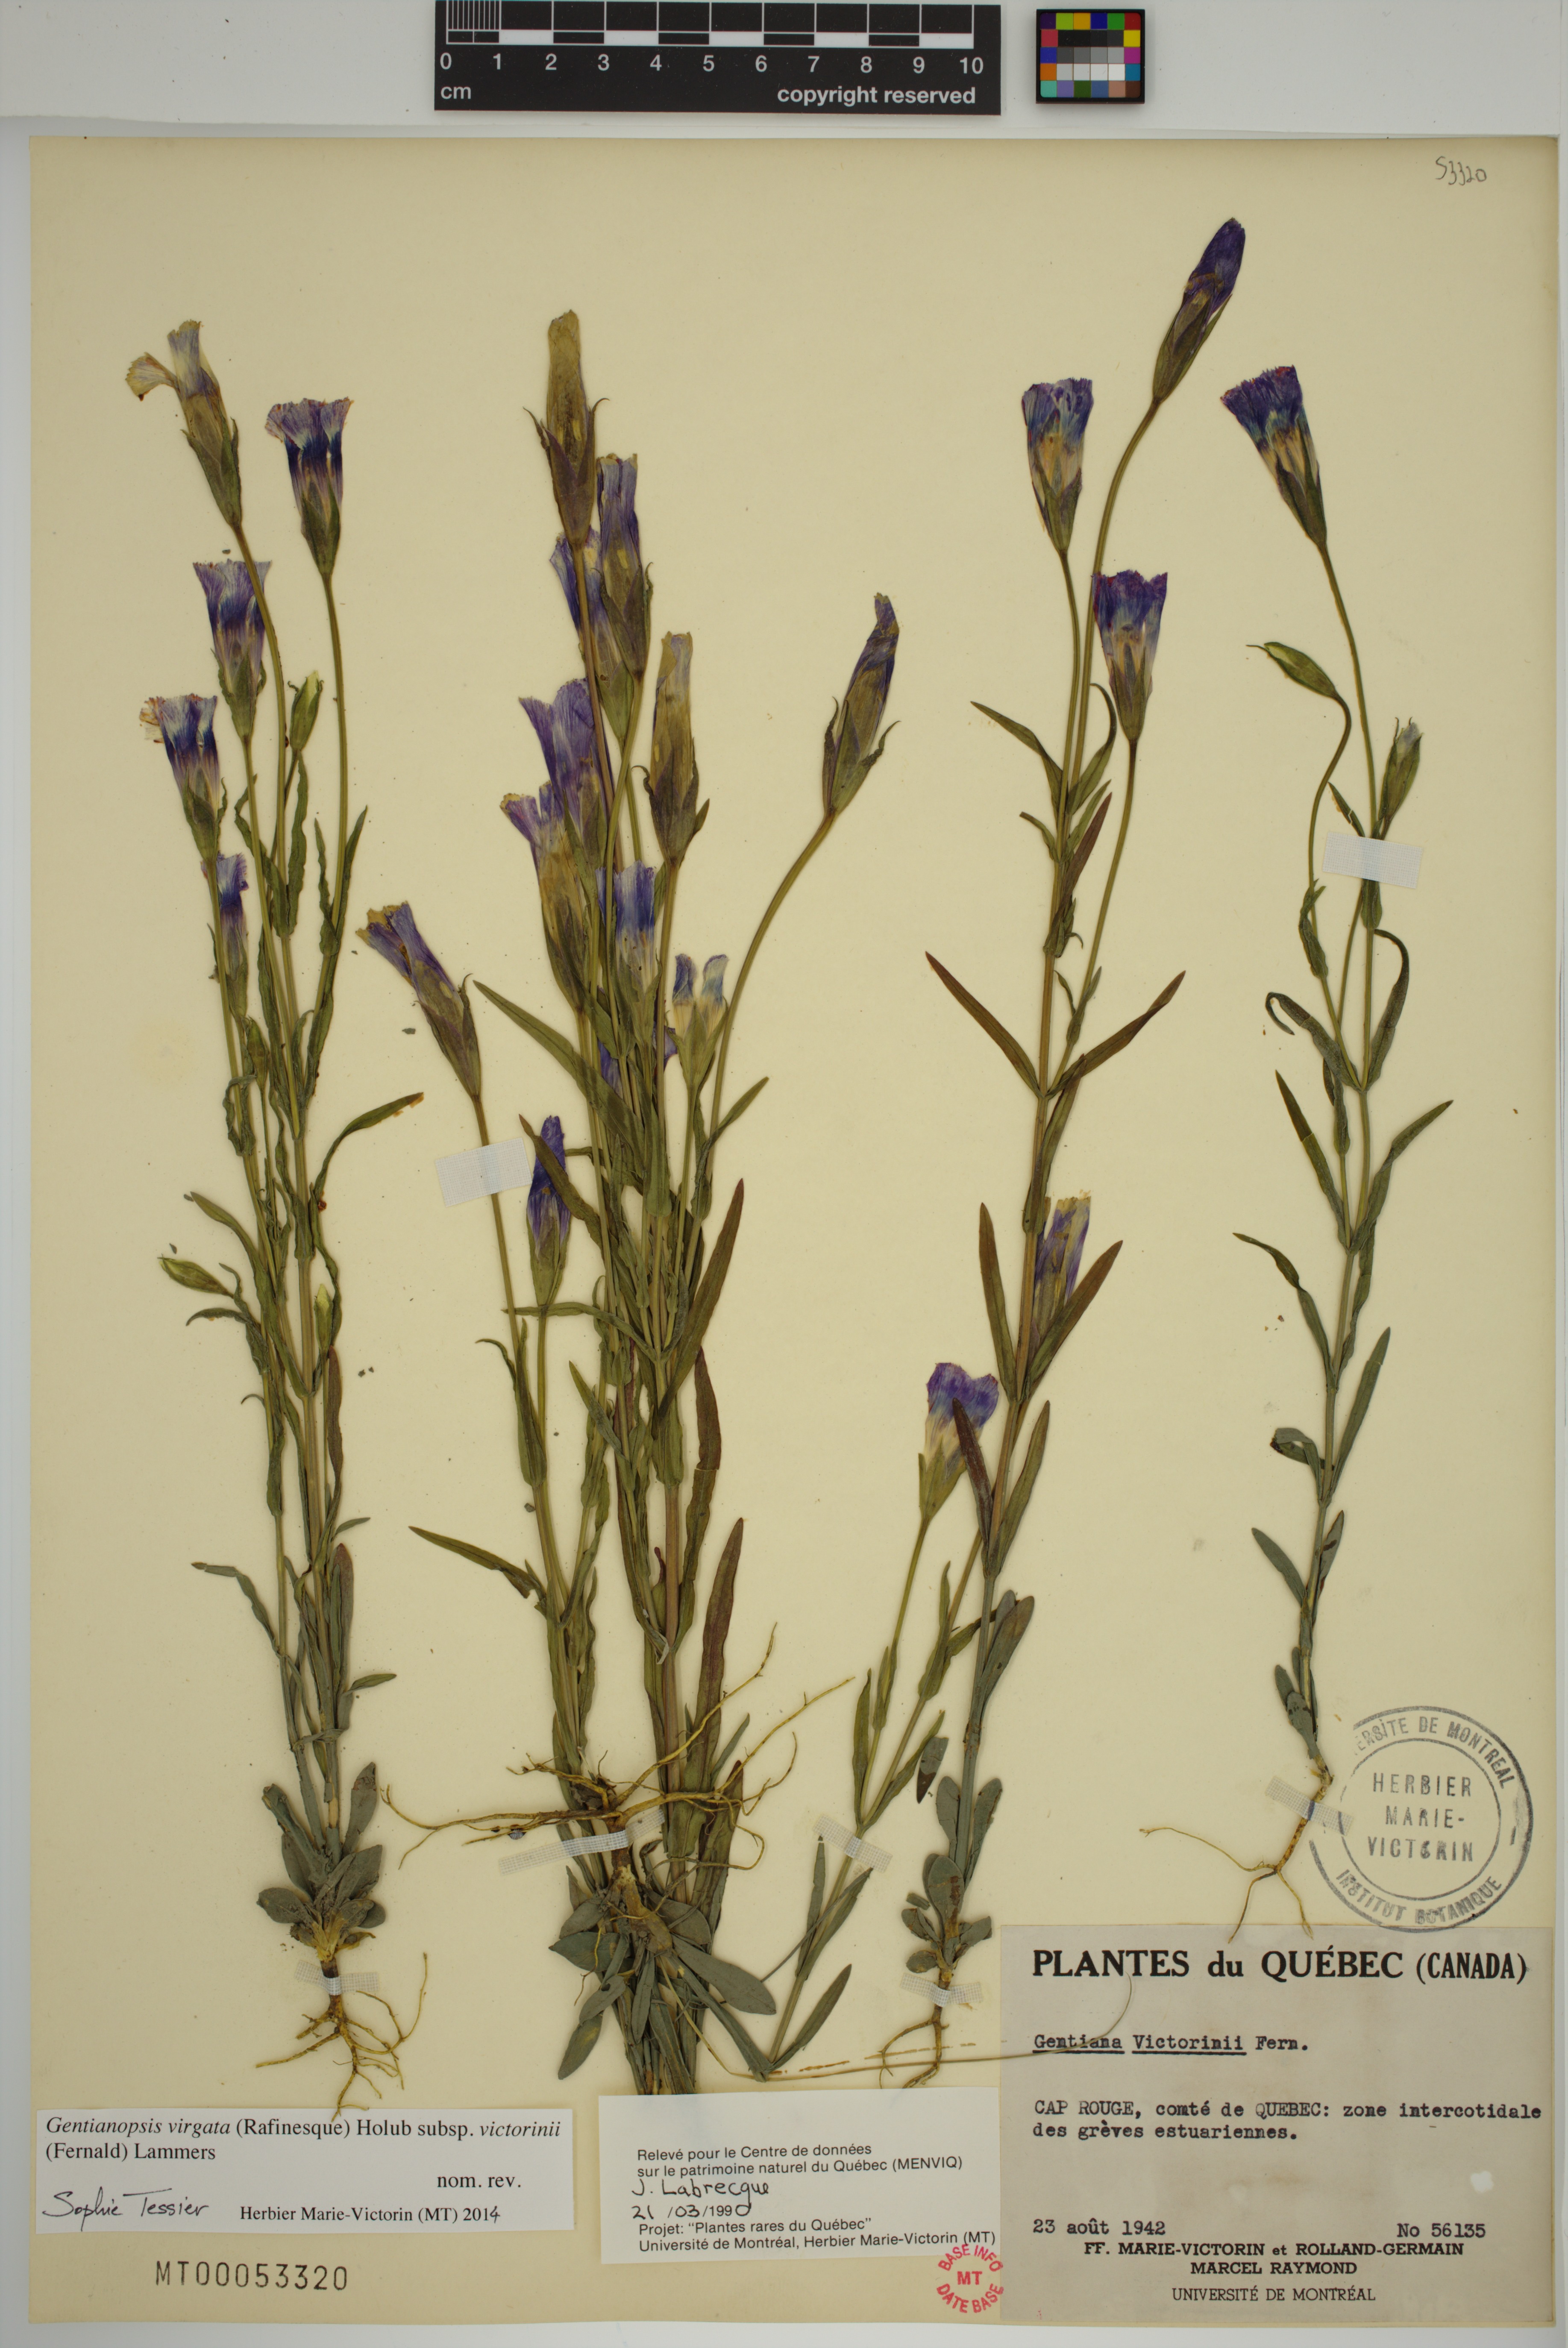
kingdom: Plantae
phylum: Tracheophyta
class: Magnoliopsida
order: Gentianales
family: Gentianaceae
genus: Gentianopsis
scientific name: Gentianopsis victorinii
